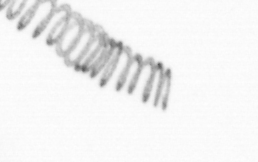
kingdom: Chromista
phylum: Ochrophyta
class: Bacillariophyceae
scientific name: Bacillariophyceae
